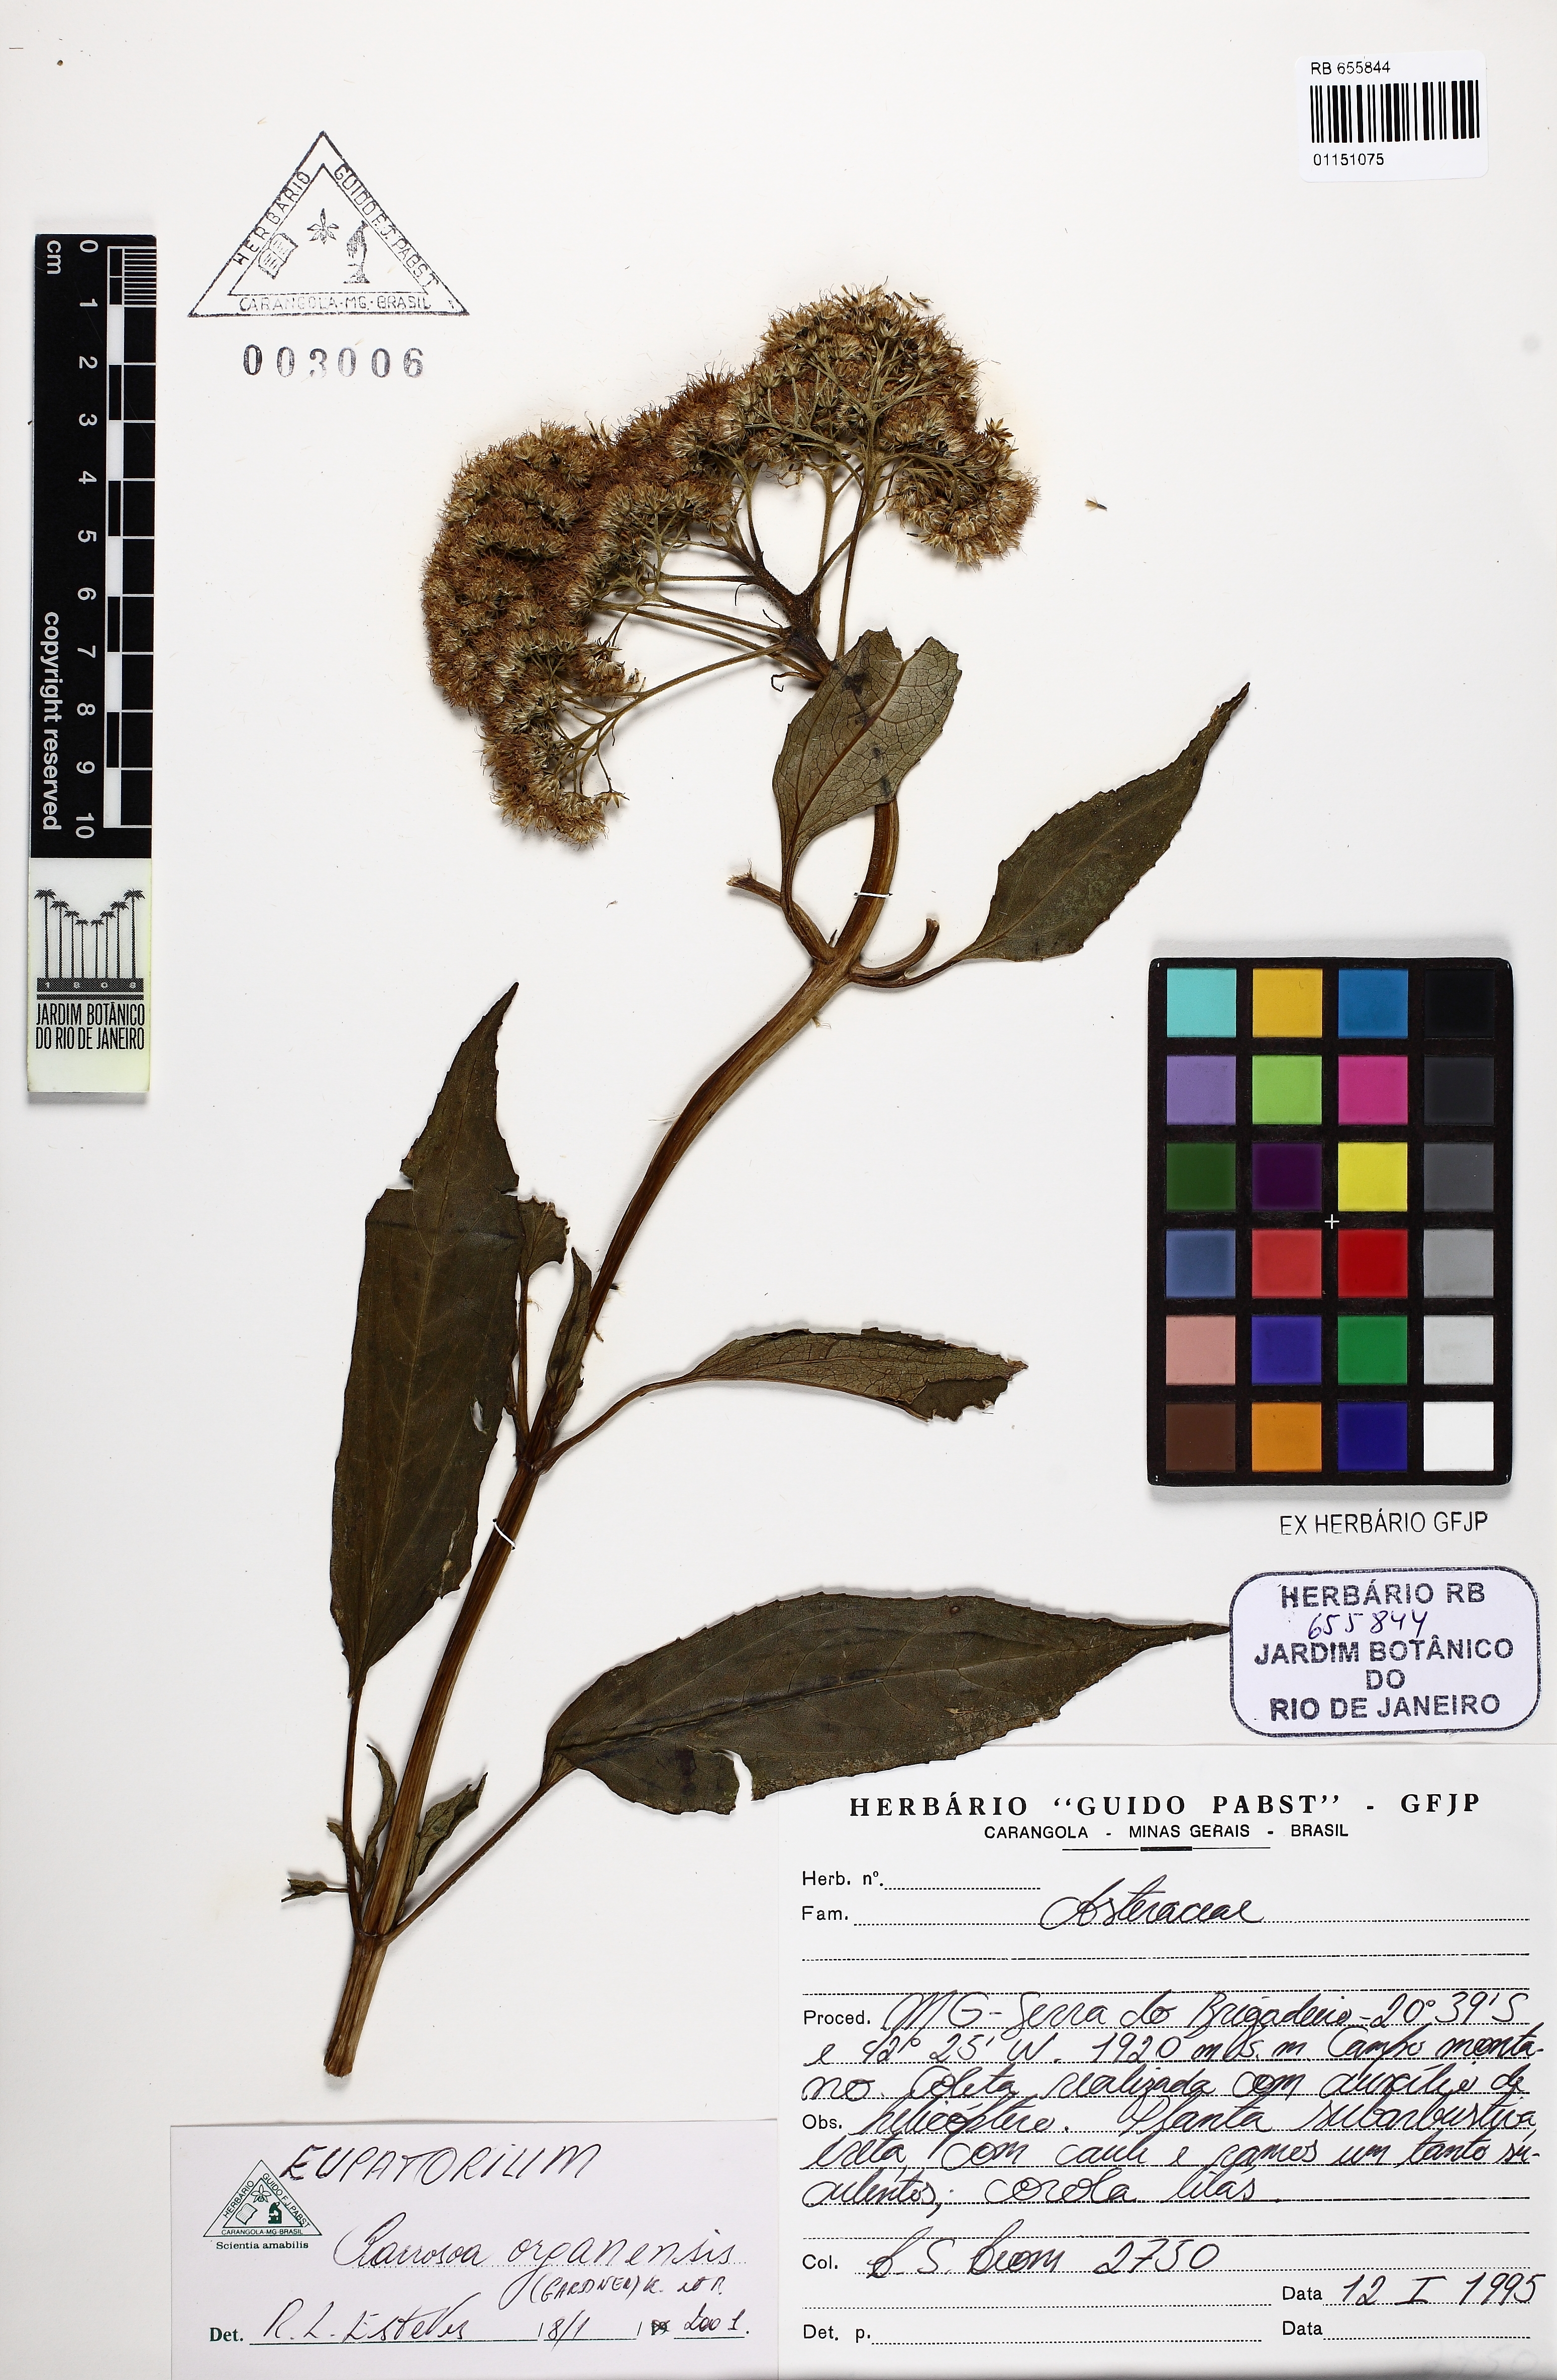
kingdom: Plantae
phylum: Tracheophyta
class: Magnoliopsida
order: Asterales
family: Asteraceae
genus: Barrosoa
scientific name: Barrosoa organensis
